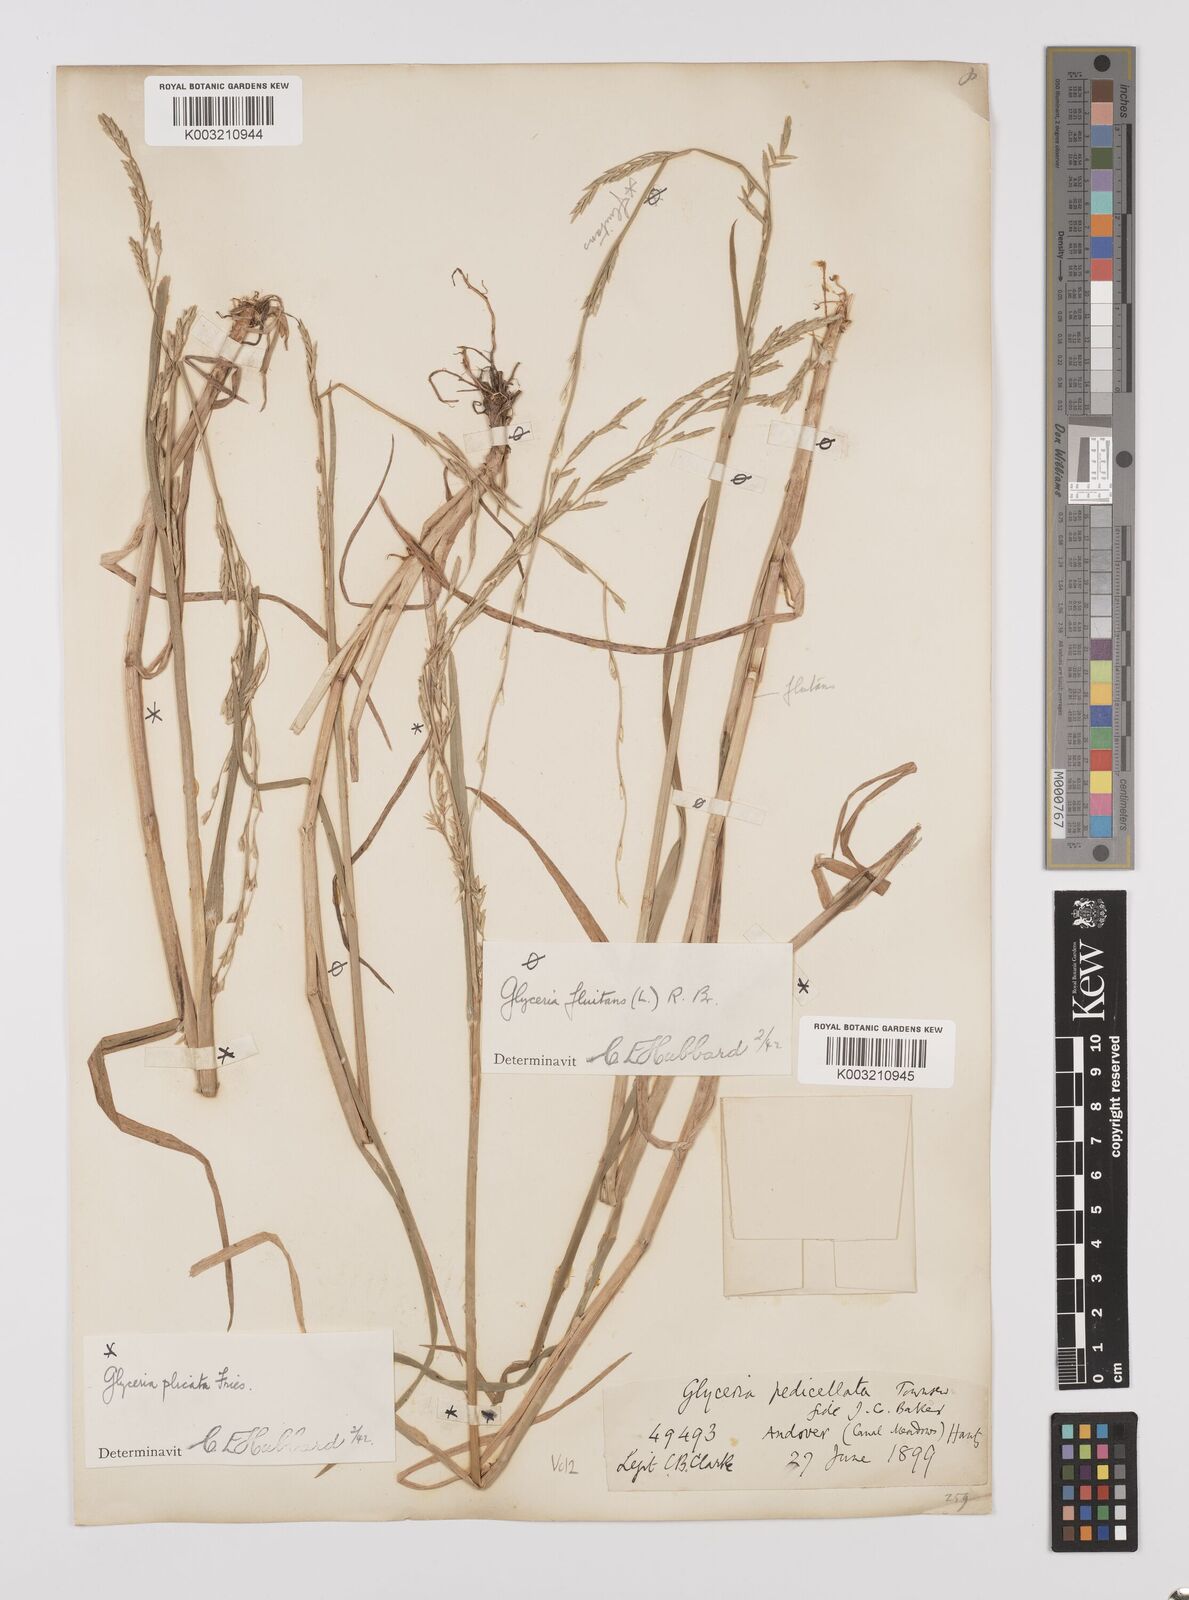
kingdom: Plantae
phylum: Tracheophyta
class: Liliopsida
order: Poales
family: Poaceae
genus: Glyceria
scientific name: Glyceria notata
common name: Plicate sweet-grass
